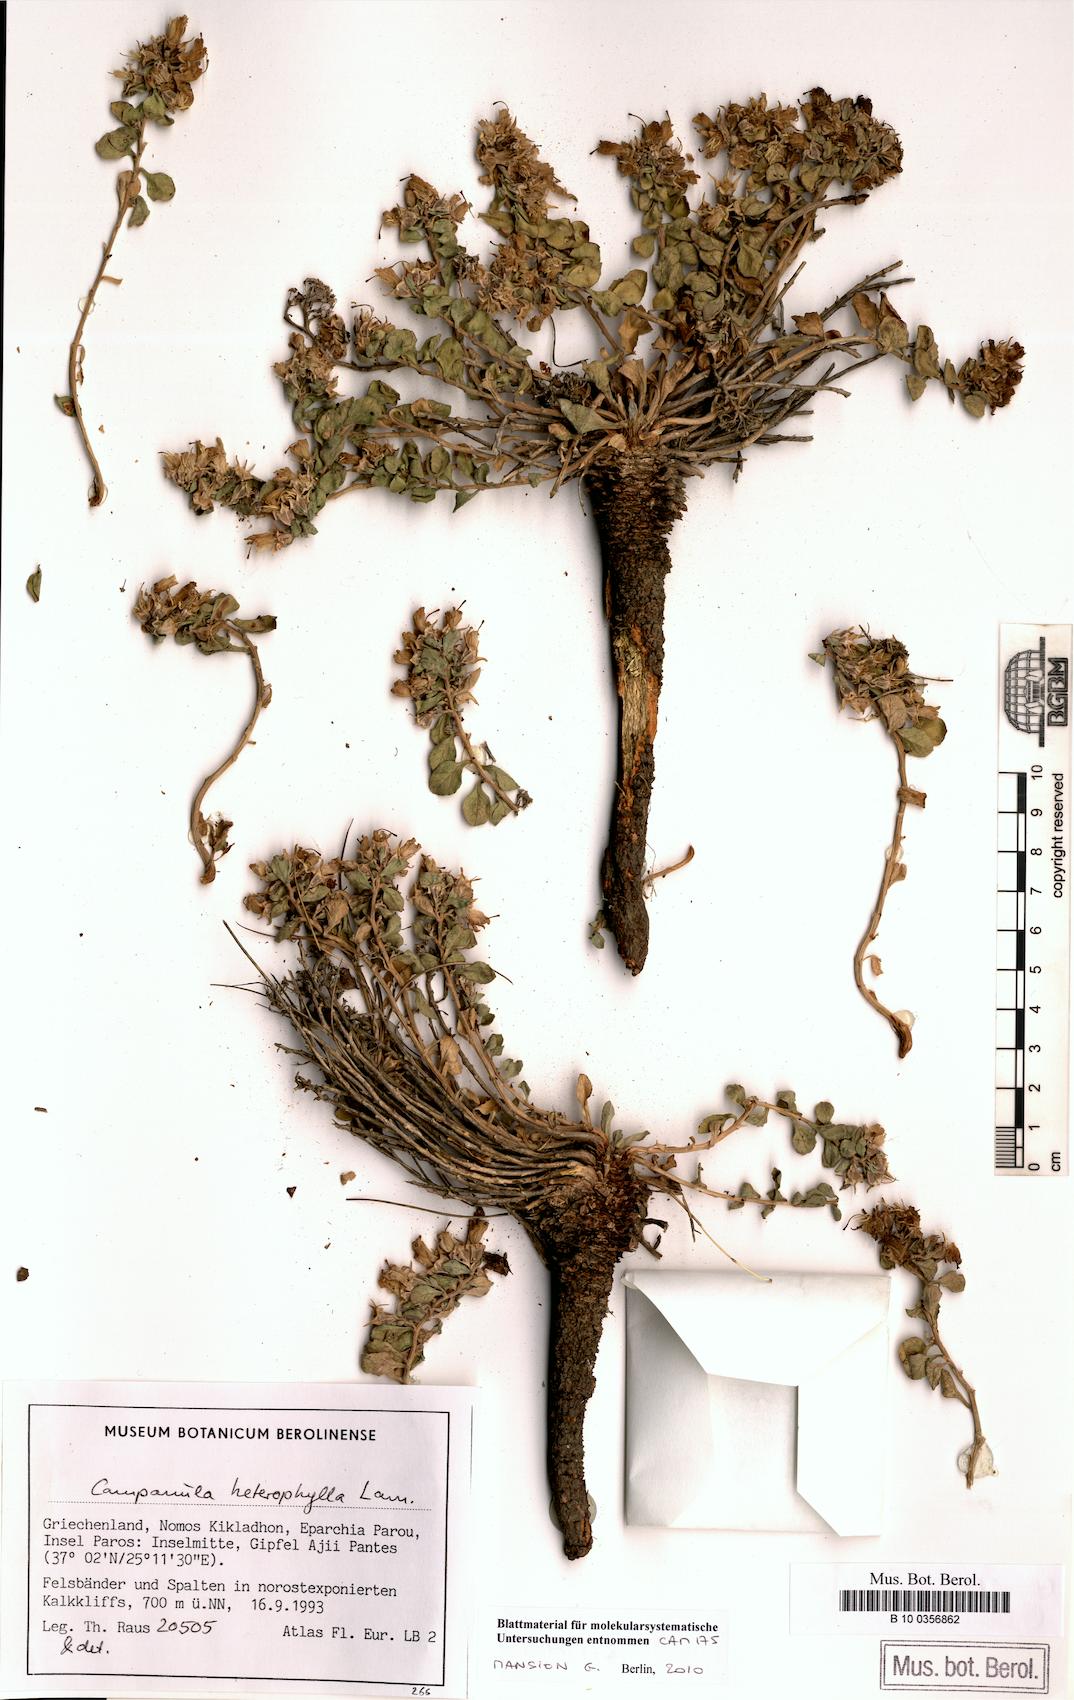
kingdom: Plantae
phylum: Tracheophyta
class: Magnoliopsida
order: Asterales
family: Campanulaceae
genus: Campanula
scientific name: Campanula heterophylla
